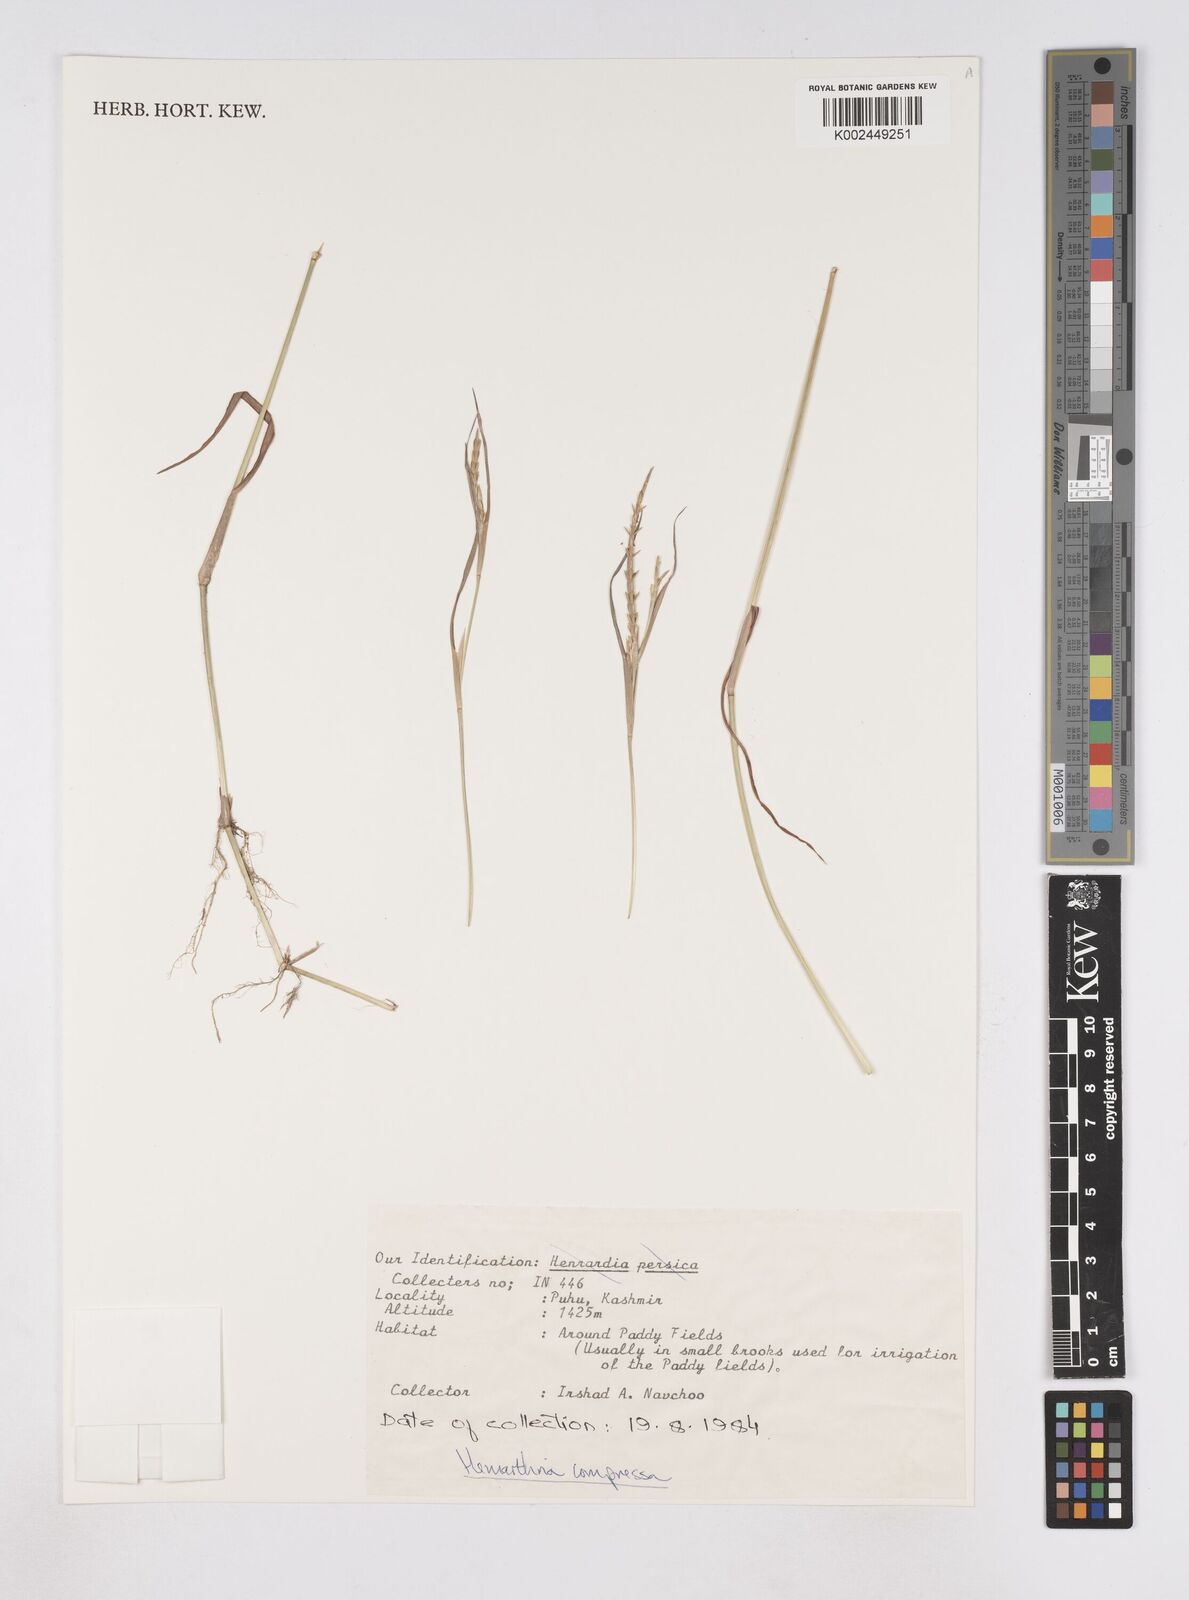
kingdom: Plantae
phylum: Tracheophyta
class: Liliopsida
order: Poales
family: Poaceae
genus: Hemarthria
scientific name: Hemarthria compressa
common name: Whip grass
